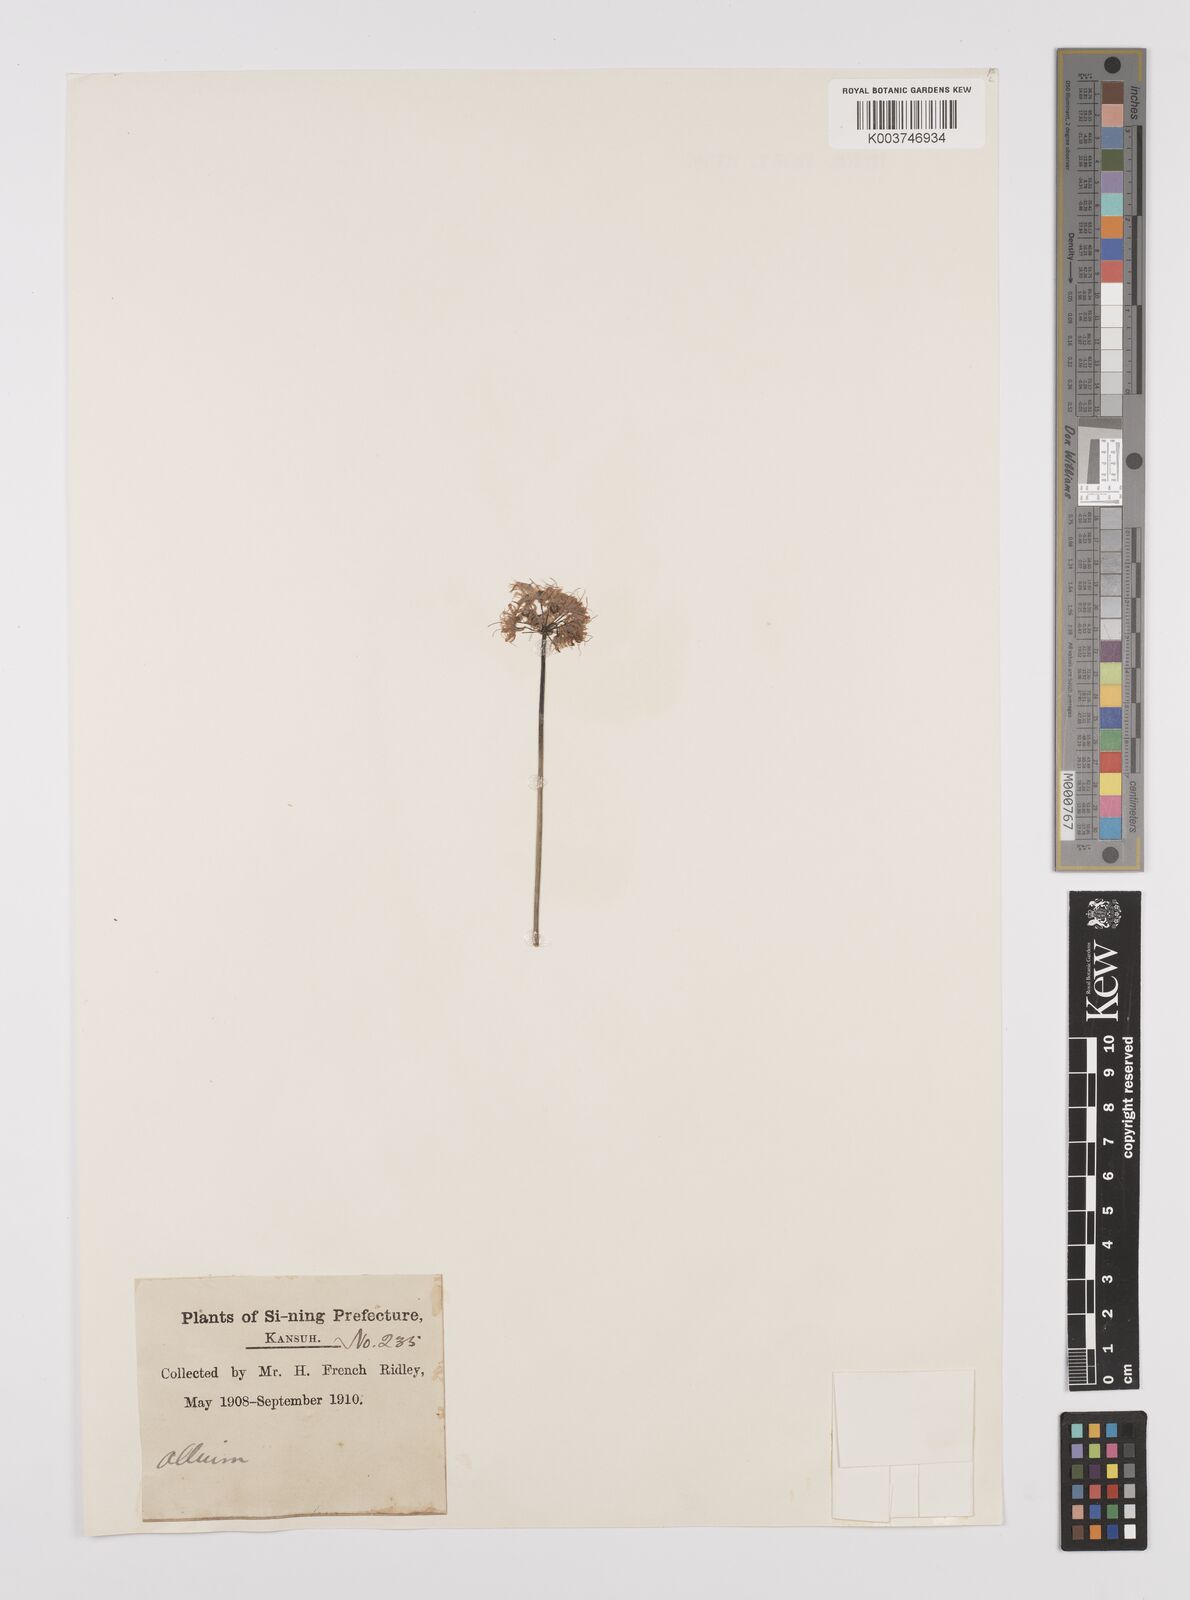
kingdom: Plantae
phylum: Tracheophyta
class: Liliopsida
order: Asparagales
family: Amaryllidaceae
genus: Allium
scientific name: Allium
